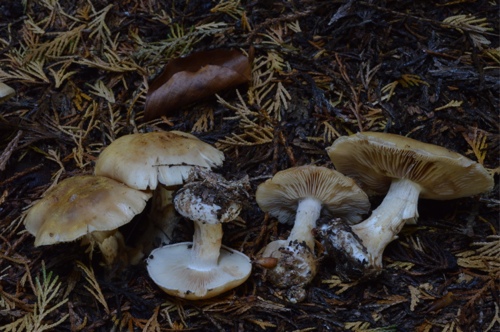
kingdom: Fungi
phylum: Basidiomycota
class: Agaricomycetes
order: Agaricales
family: Tricholomataceae
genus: Leucocortinarius
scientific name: Leucocortinarius bulbiger
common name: klumpfod
